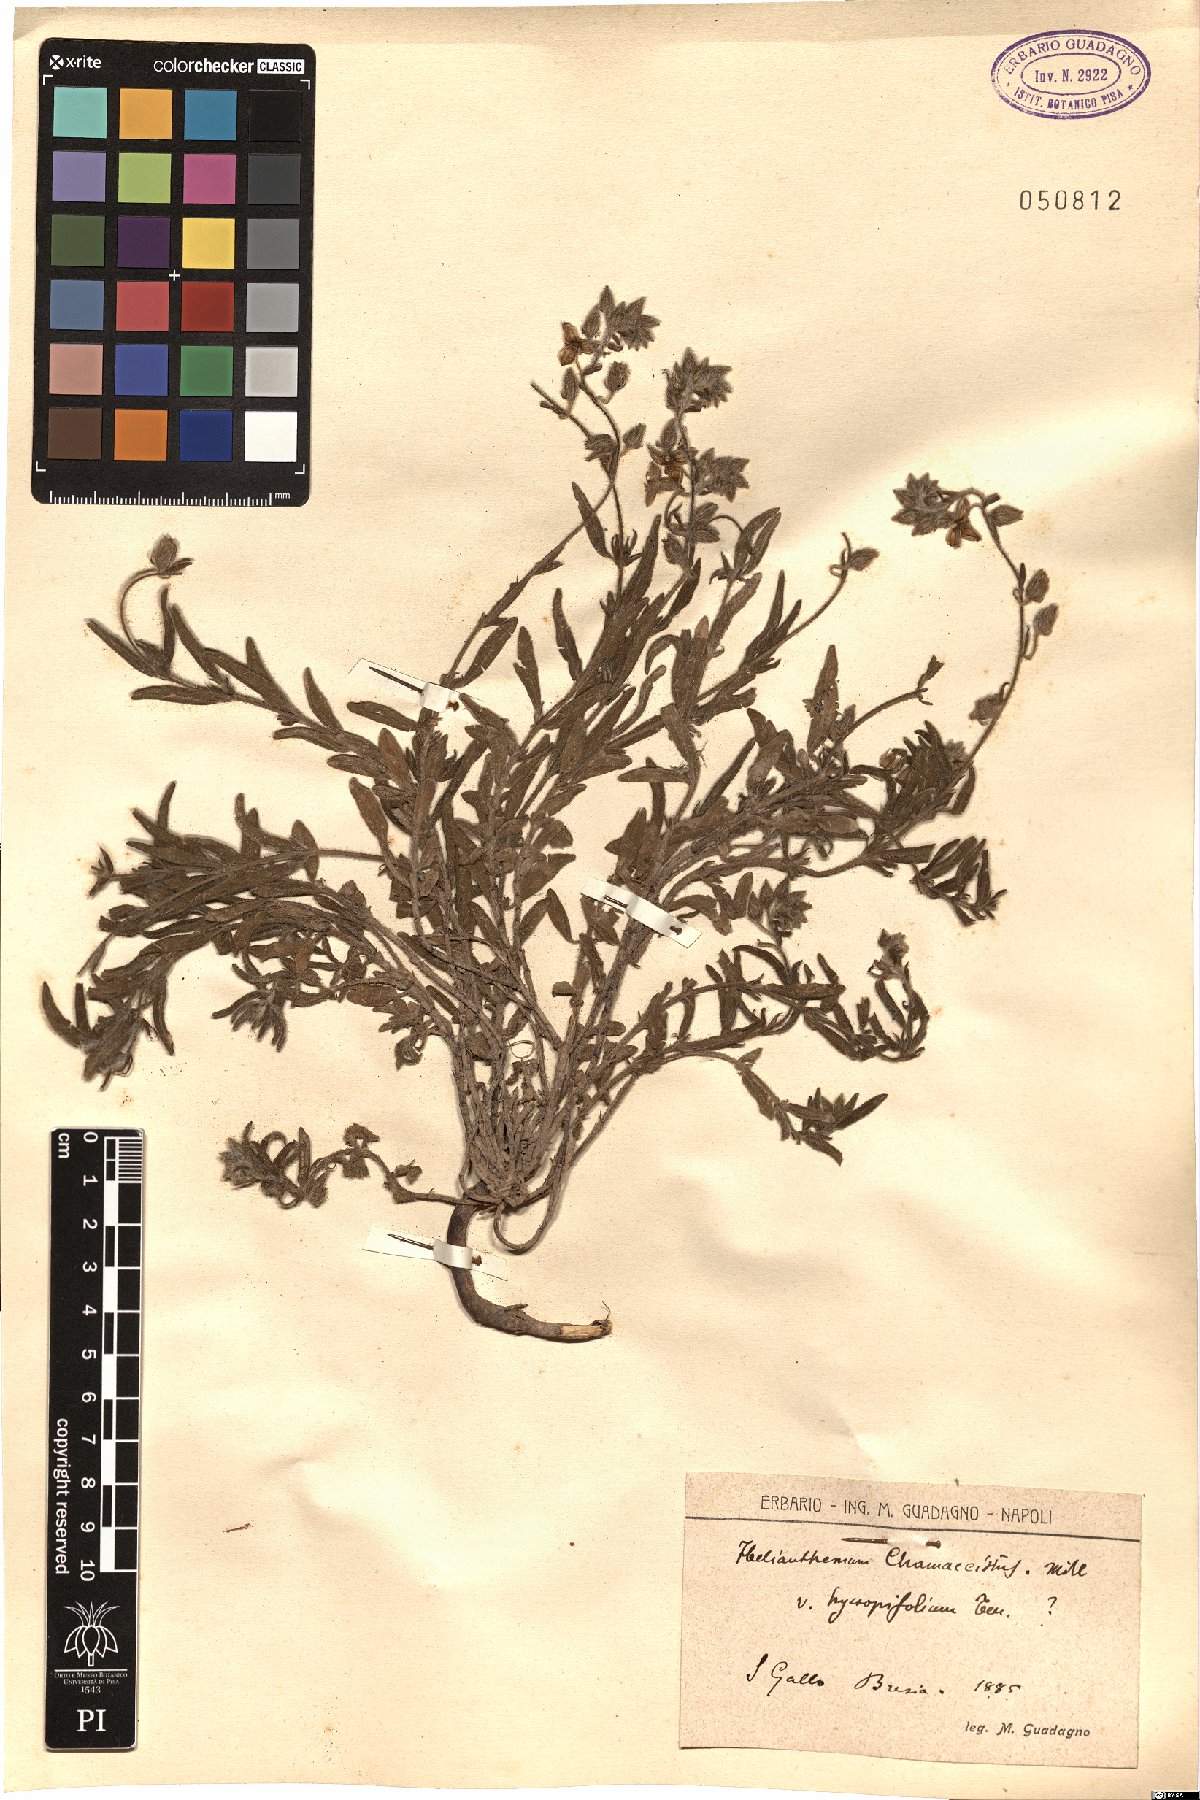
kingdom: Plantae
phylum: Tracheophyta
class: Magnoliopsida
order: Malvales
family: Cistaceae
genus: Helianthemum
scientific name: Helianthemum nummularium
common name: Common rock-rose
